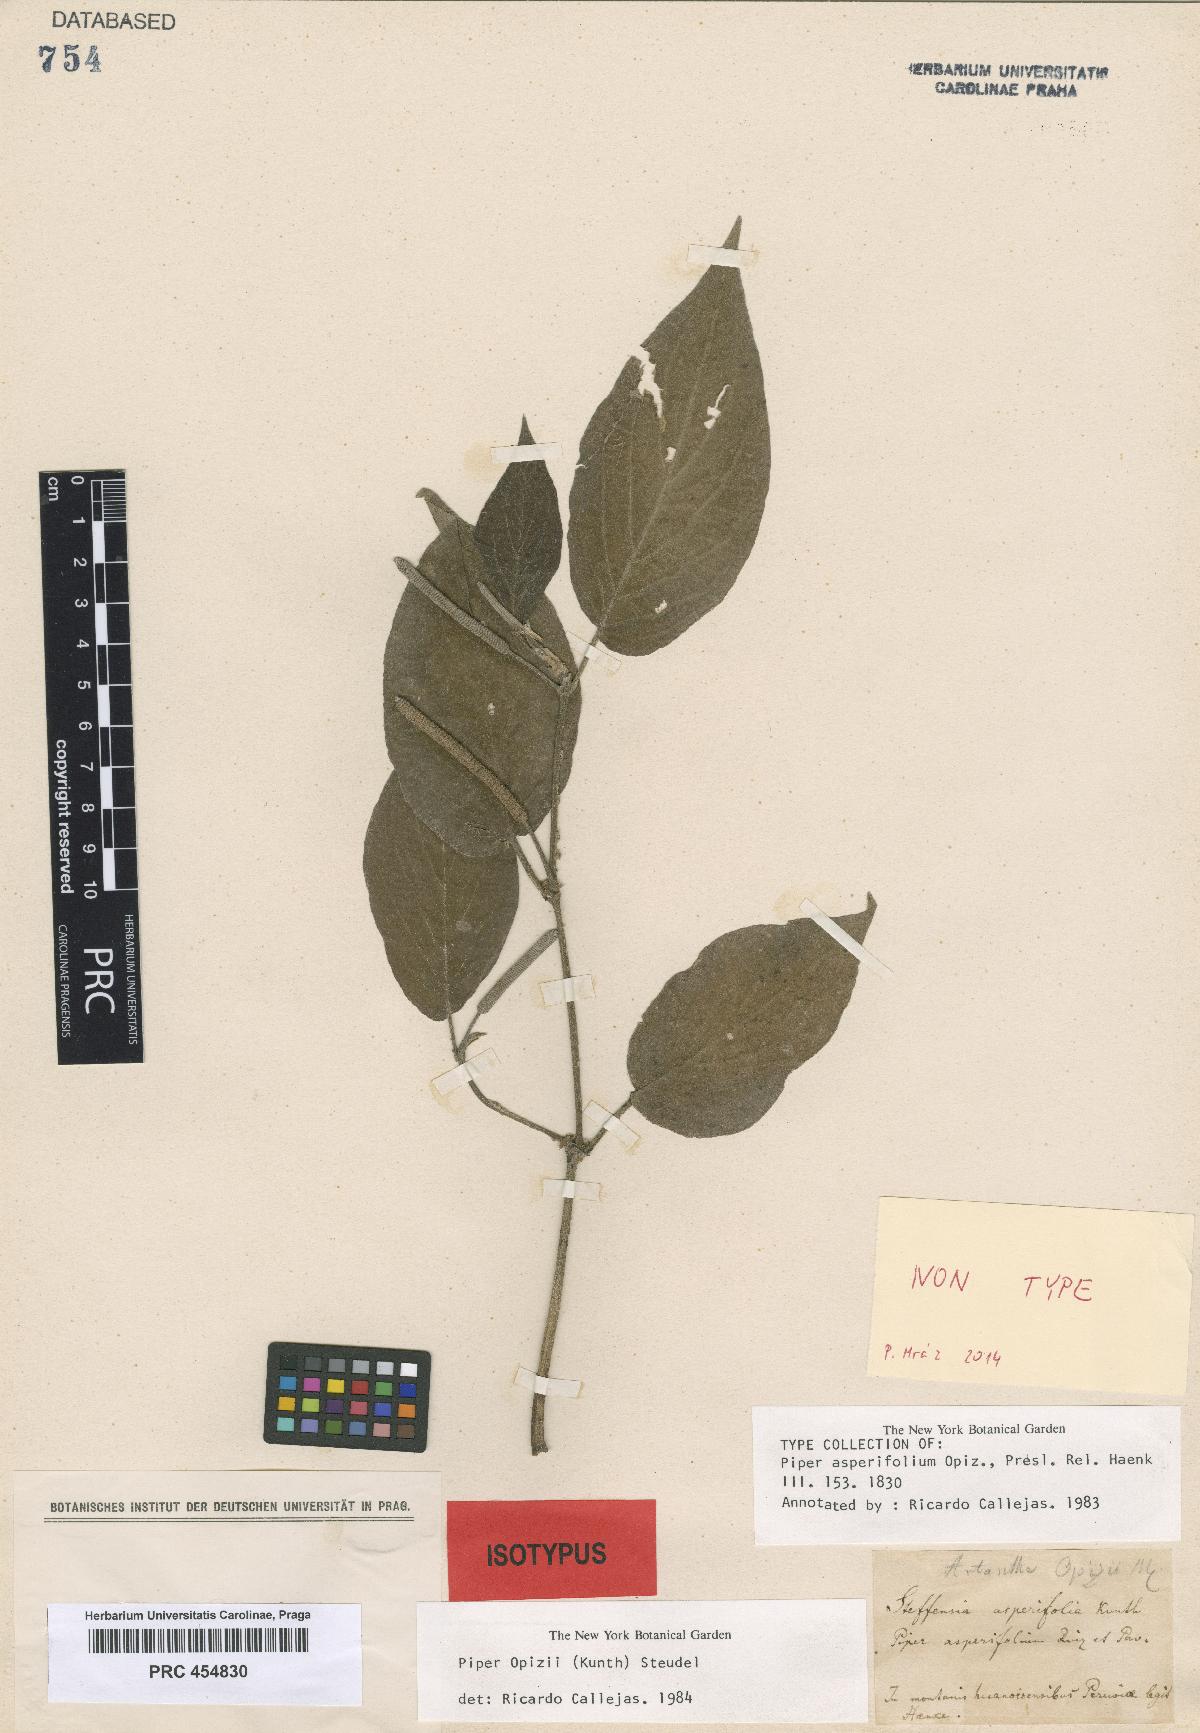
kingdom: Plantae
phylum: Tracheophyta
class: Magnoliopsida
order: Piperales
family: Piperaceae
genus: Piper
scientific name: Piper afflictum
